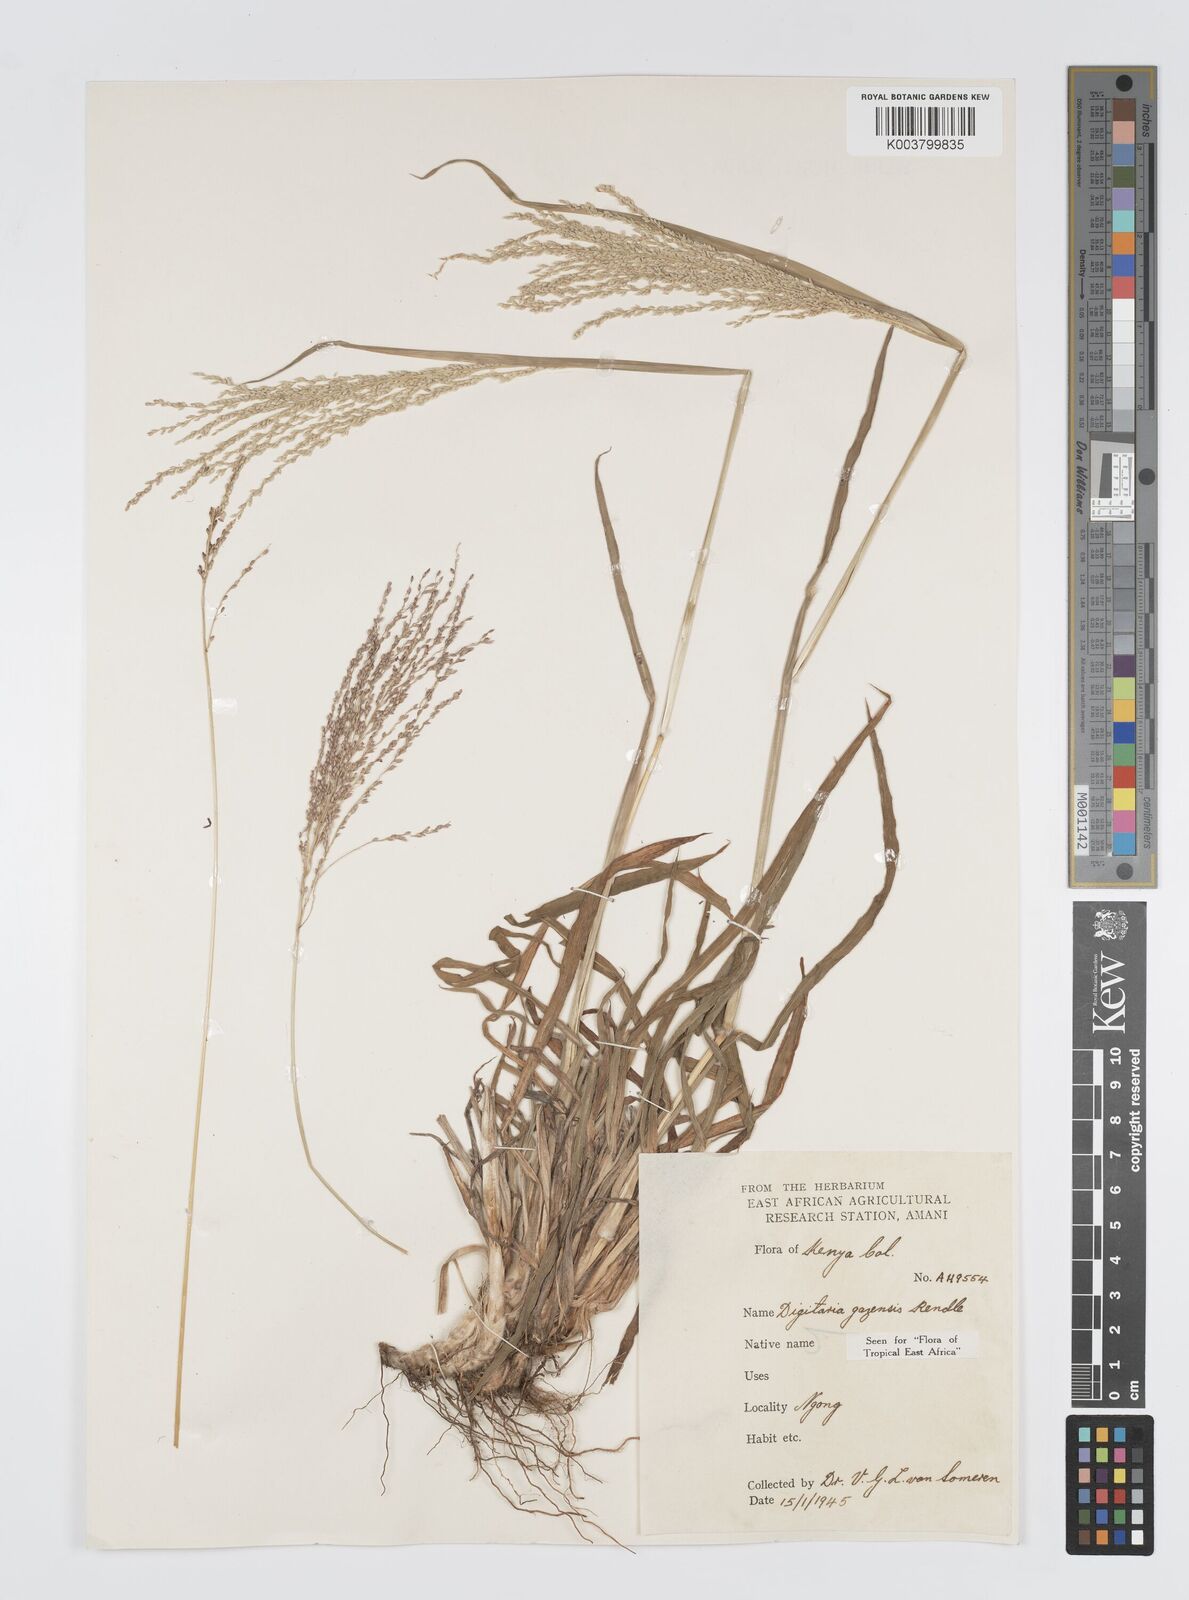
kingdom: Plantae
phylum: Tracheophyta
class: Liliopsida
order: Poales
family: Poaceae
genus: Digitaria
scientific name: Digitaria gazensis
